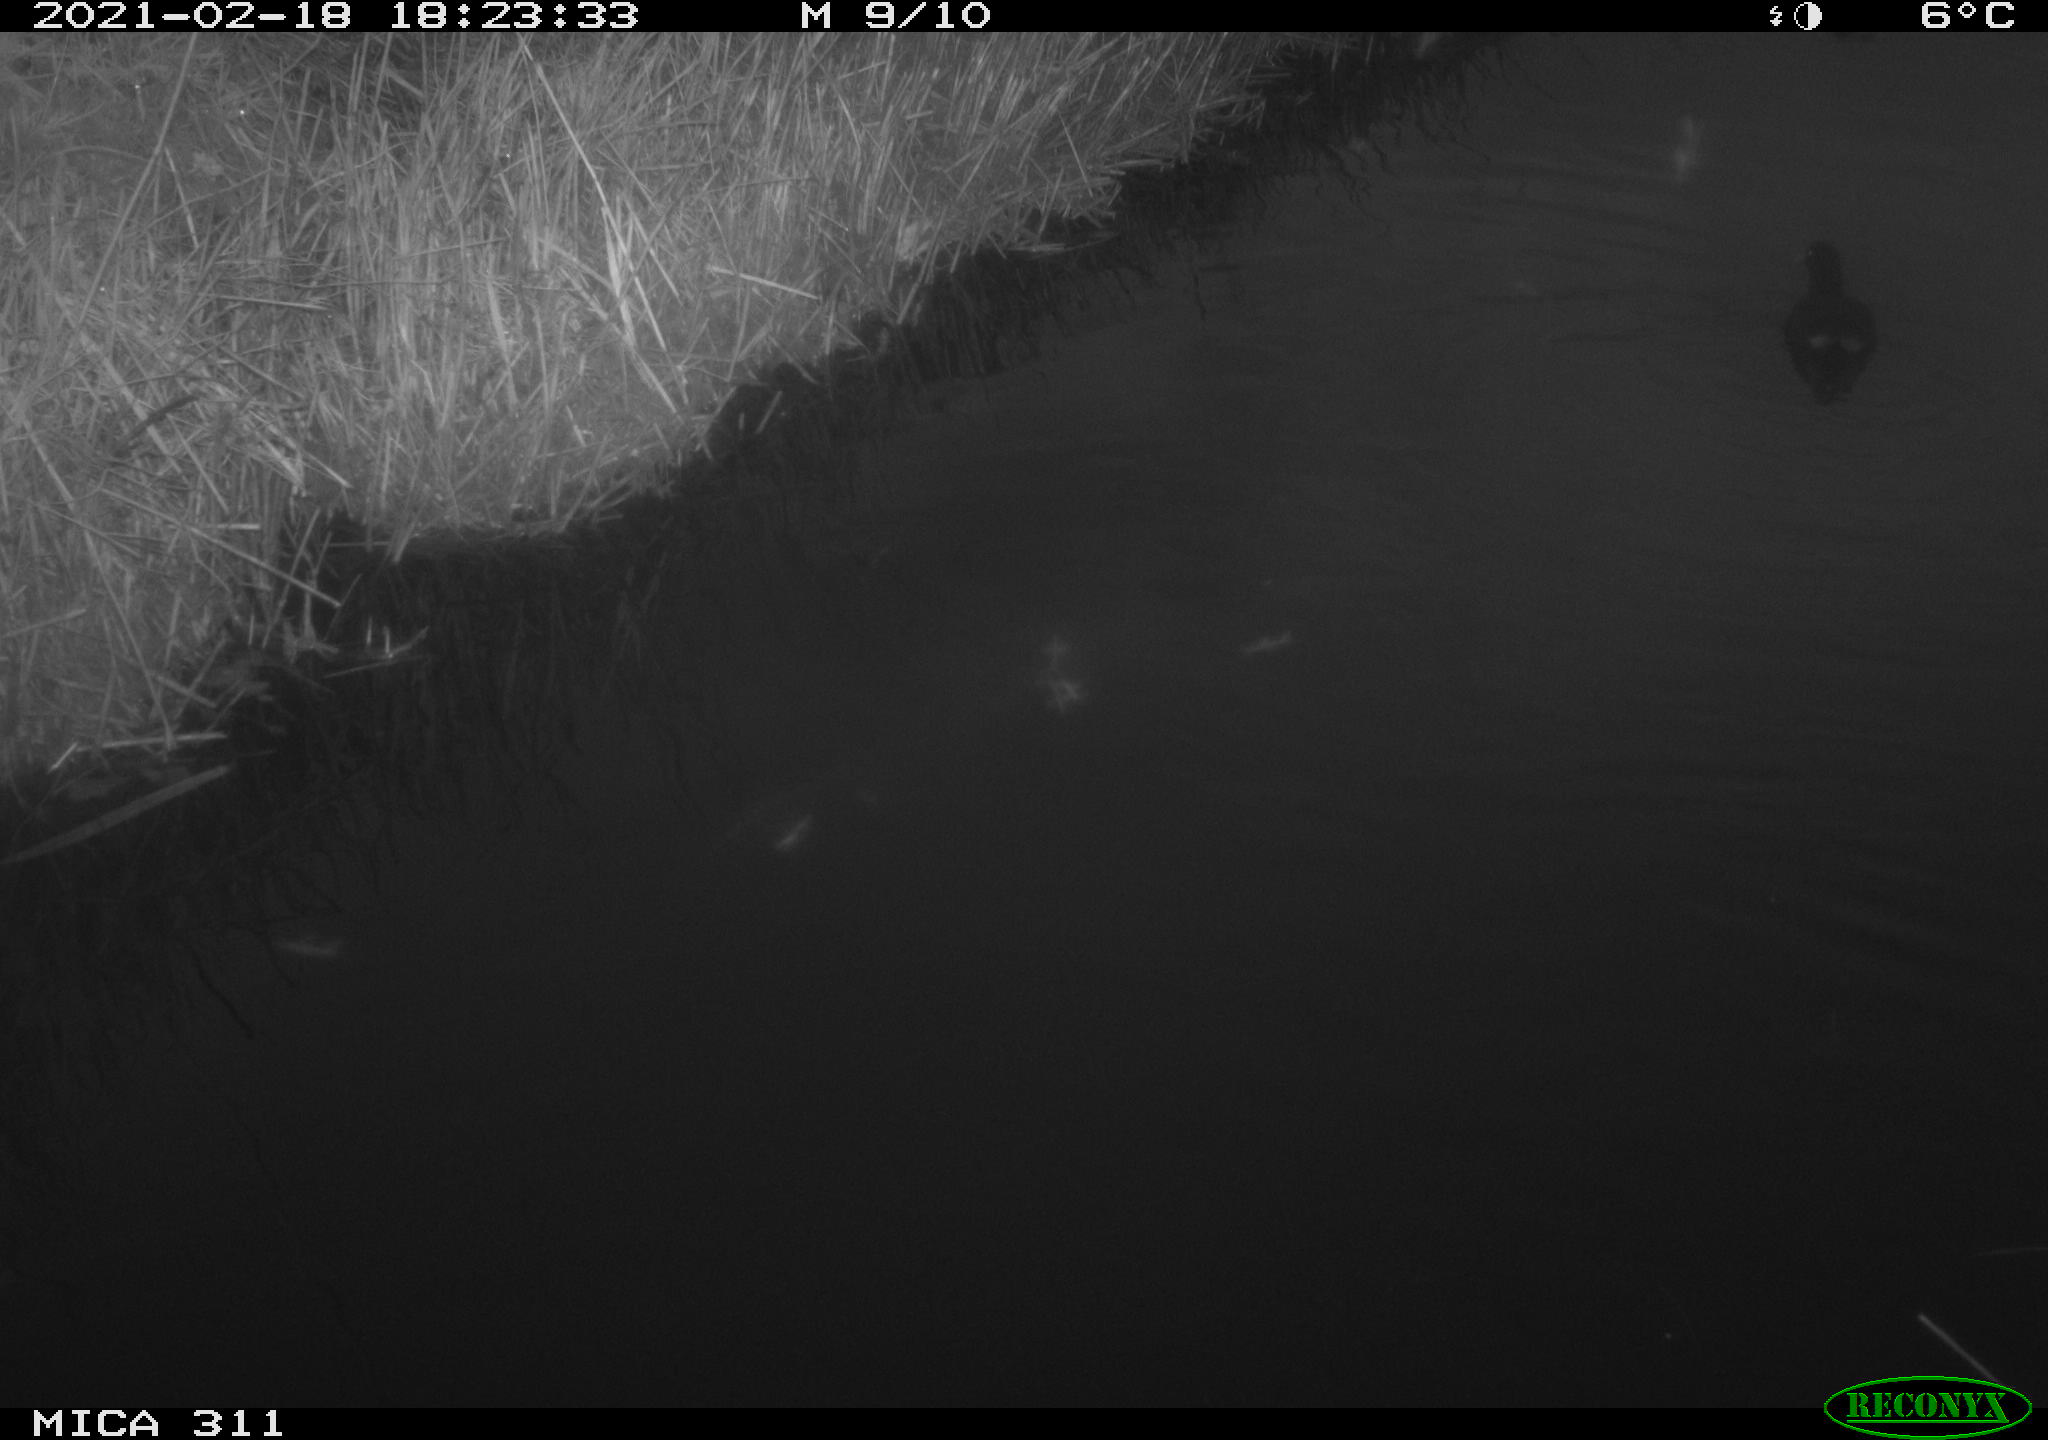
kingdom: Animalia
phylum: Chordata
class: Aves
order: Gruiformes
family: Rallidae
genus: Gallinula
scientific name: Gallinula chloropus
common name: Common moorhen
